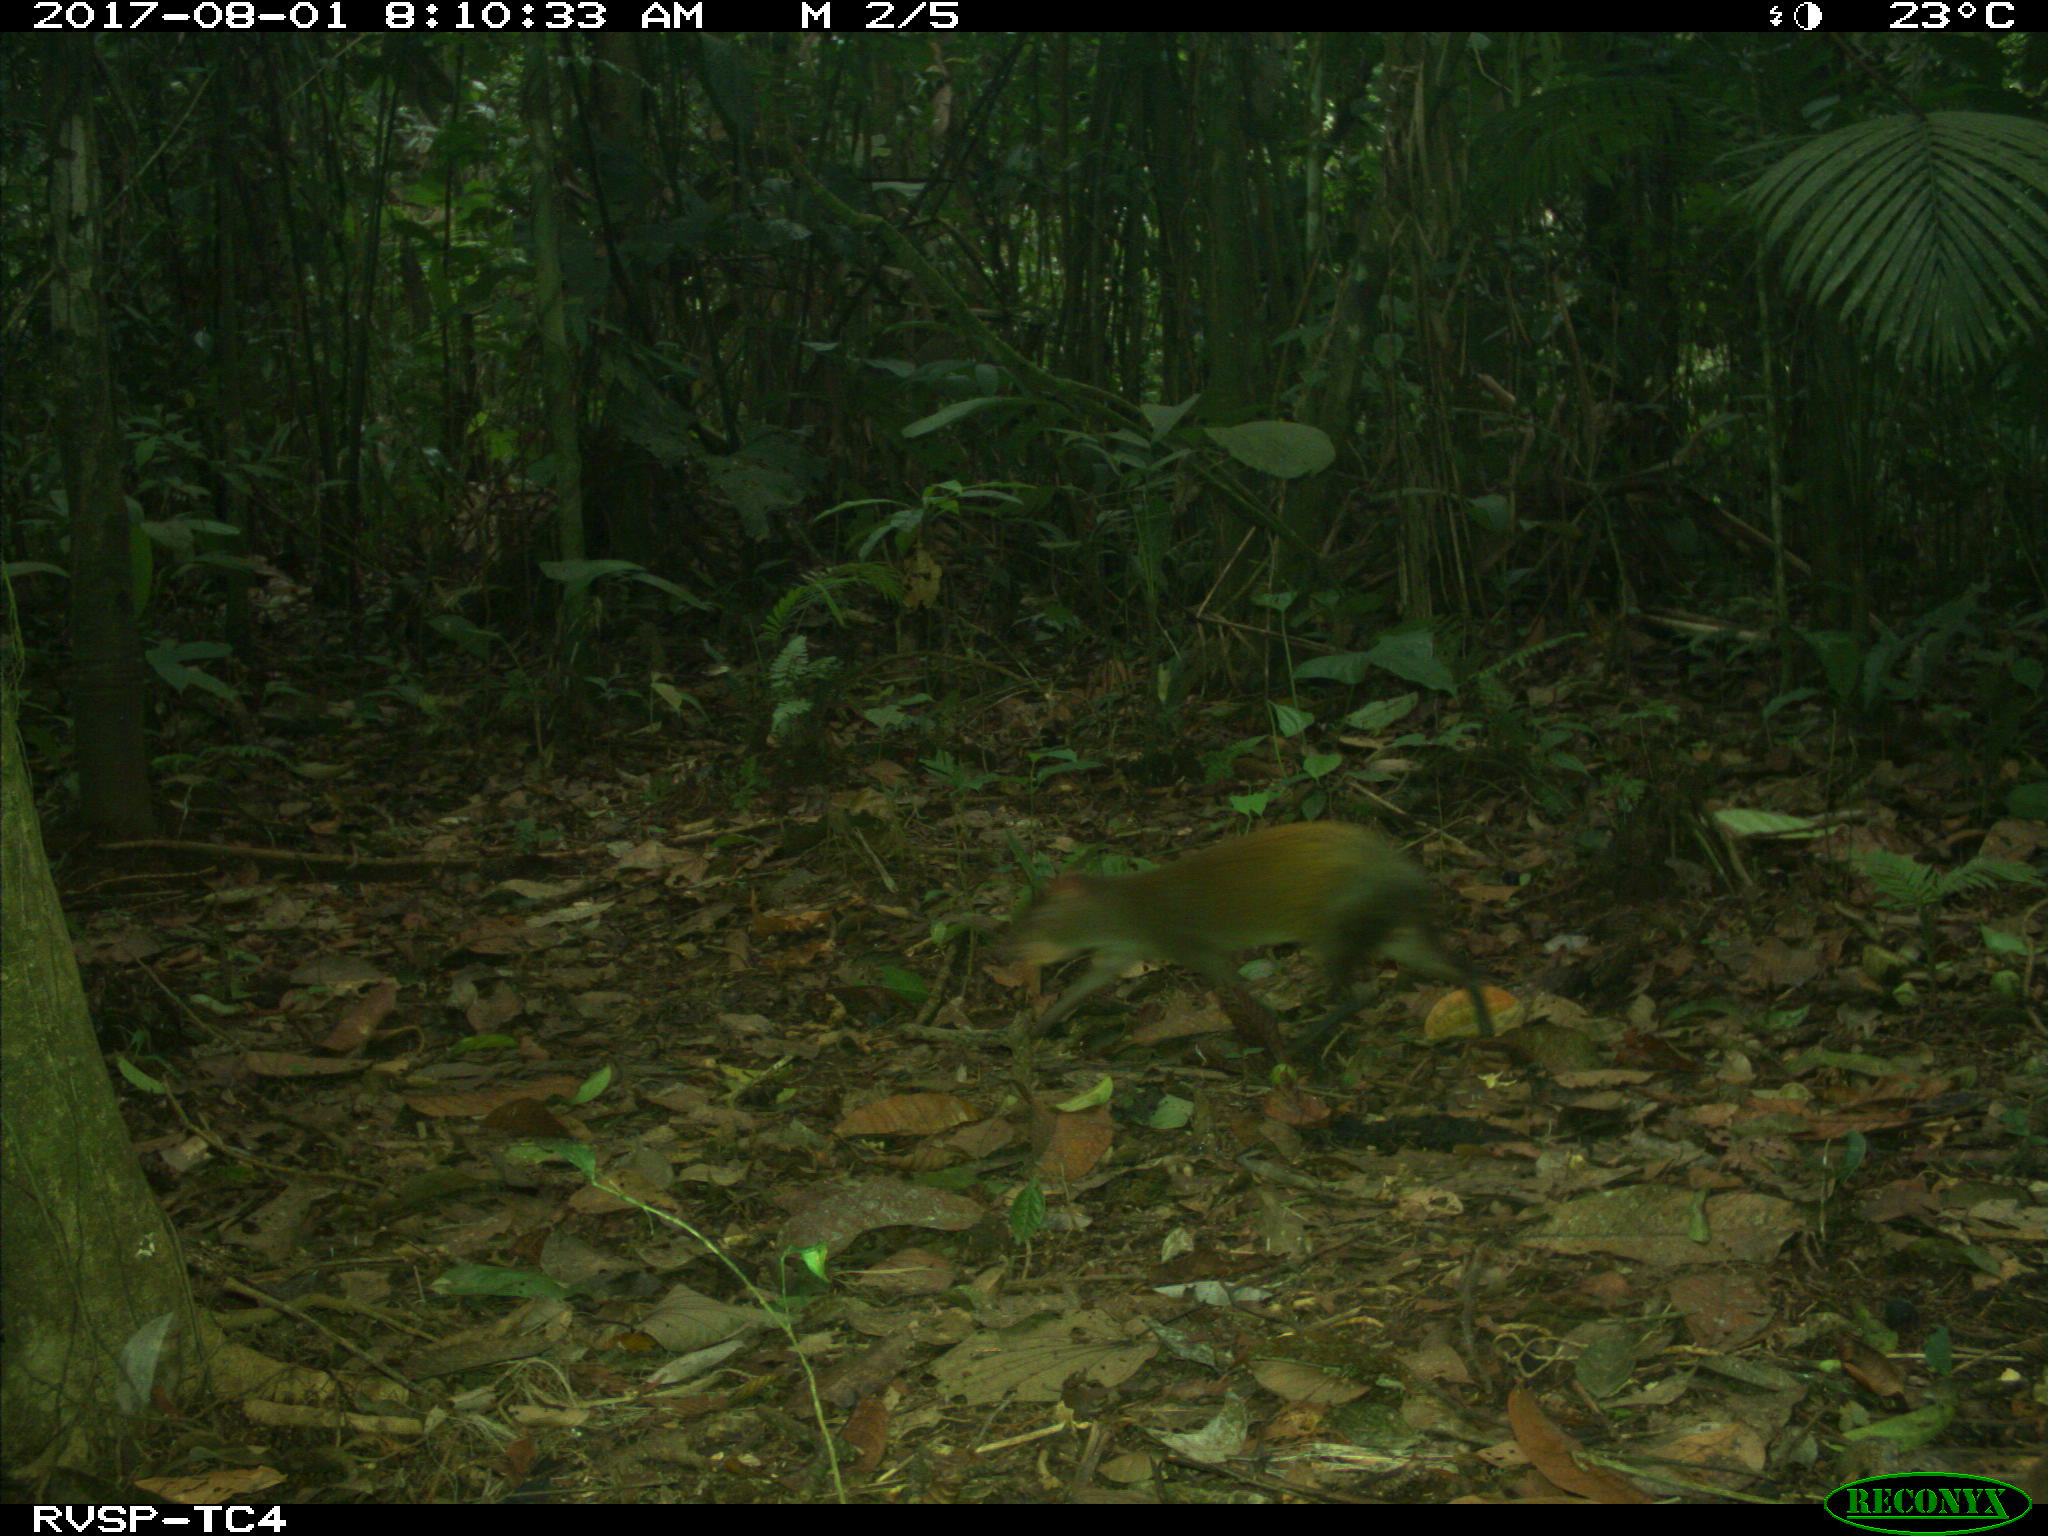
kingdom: Animalia
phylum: Chordata
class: Mammalia
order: Rodentia
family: Dasyproctidae
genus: Dasyprocta
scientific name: Dasyprocta punctata
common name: Central american agouti
